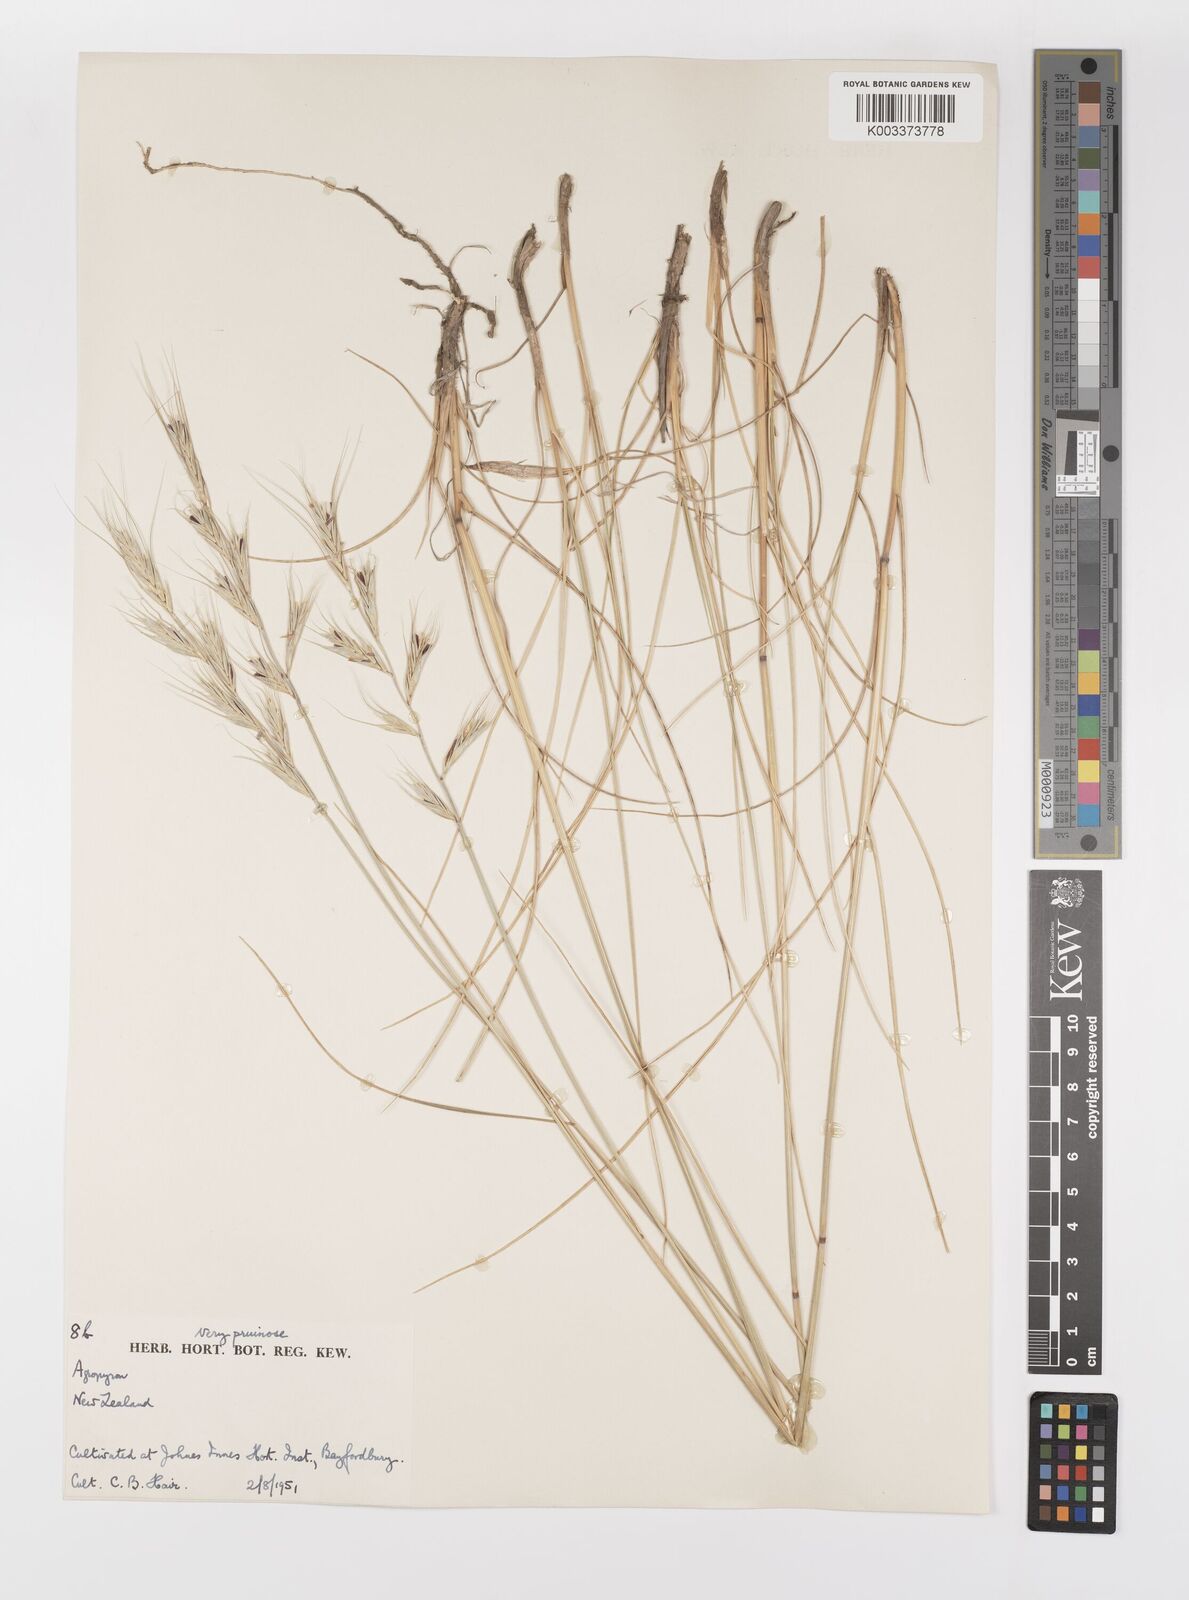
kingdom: Plantae
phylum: Tracheophyta
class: Liliopsida
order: Poales
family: Poaceae
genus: Elymus
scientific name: Elymus
